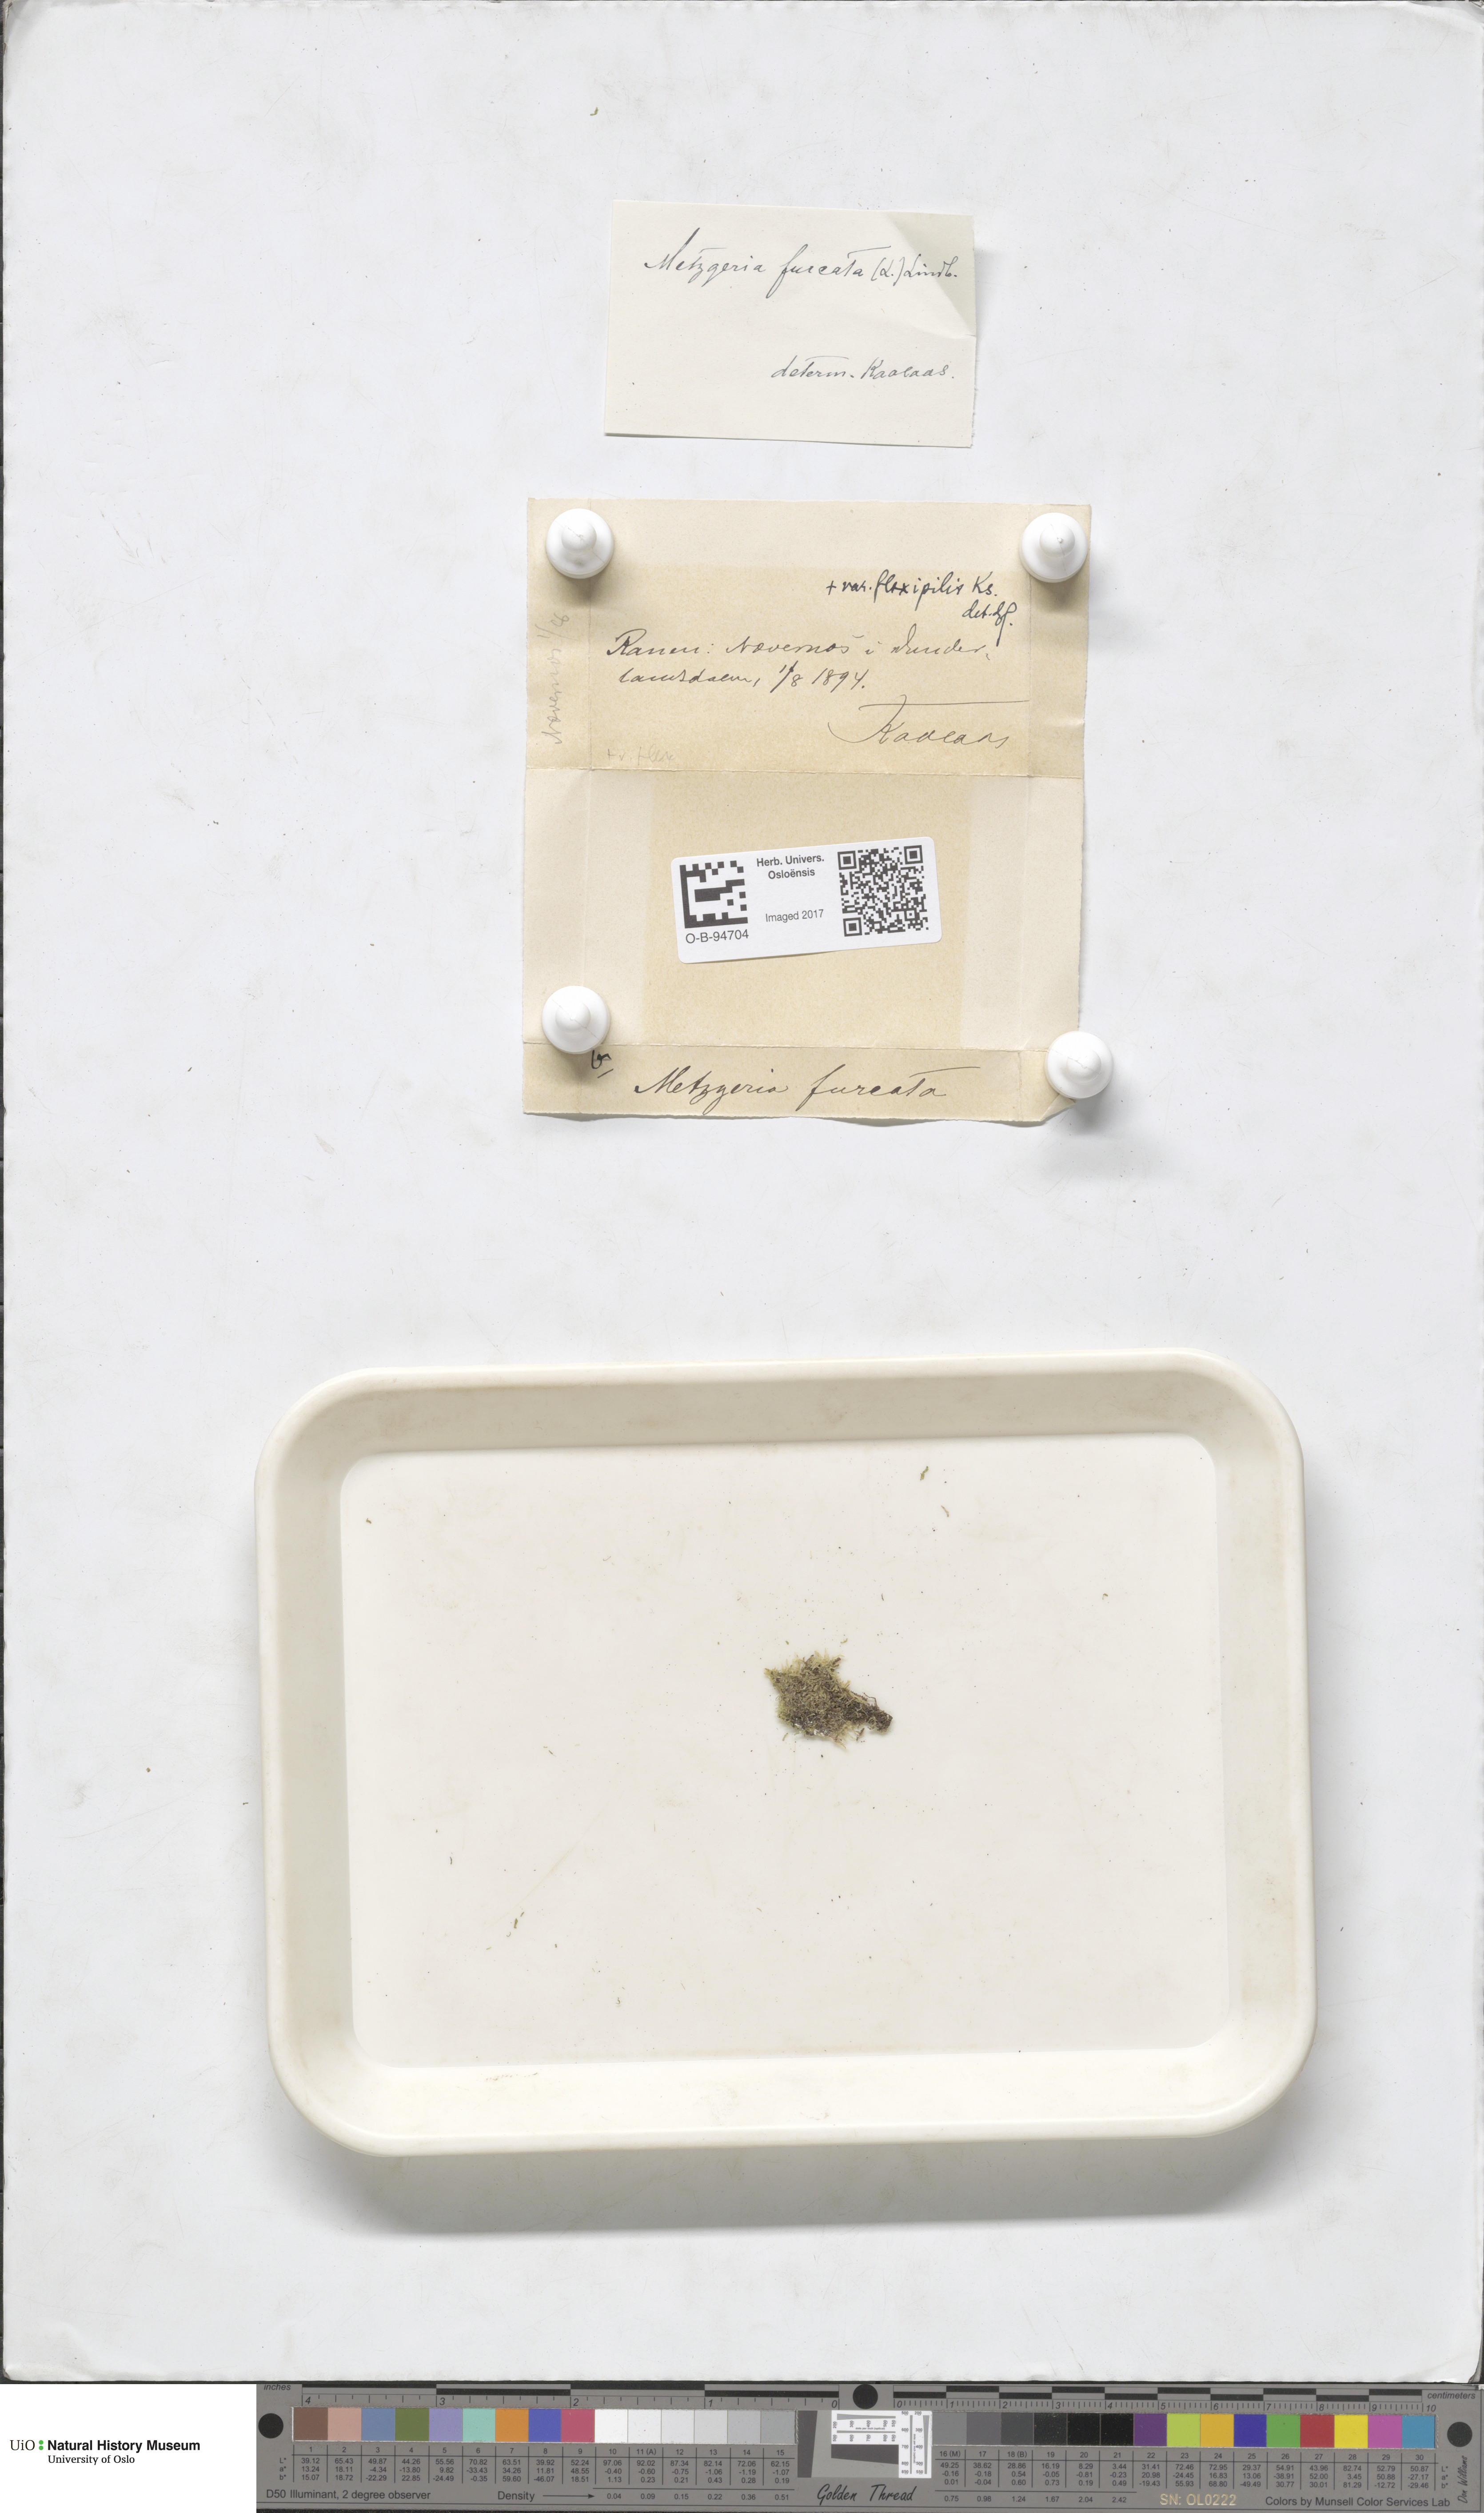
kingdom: Plantae
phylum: Marchantiophyta
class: Jungermanniopsida
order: Metzgeriales
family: Metzgeriaceae
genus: Metzgeria
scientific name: Metzgeria furcata
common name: Forked veilwort
